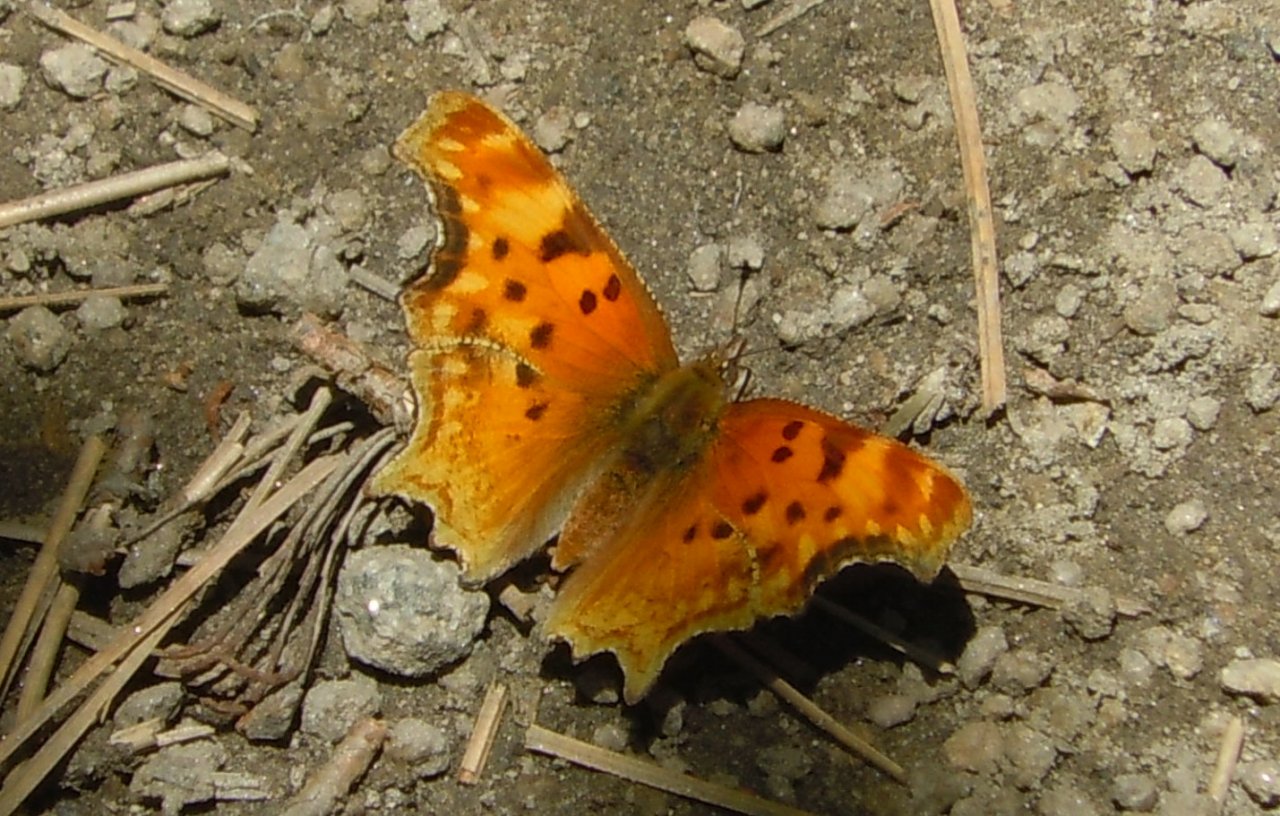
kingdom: Animalia
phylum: Arthropoda
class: Insecta
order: Lepidoptera
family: Nymphalidae
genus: Polygonia
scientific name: Polygonia satyrus
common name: Satyr Comma
